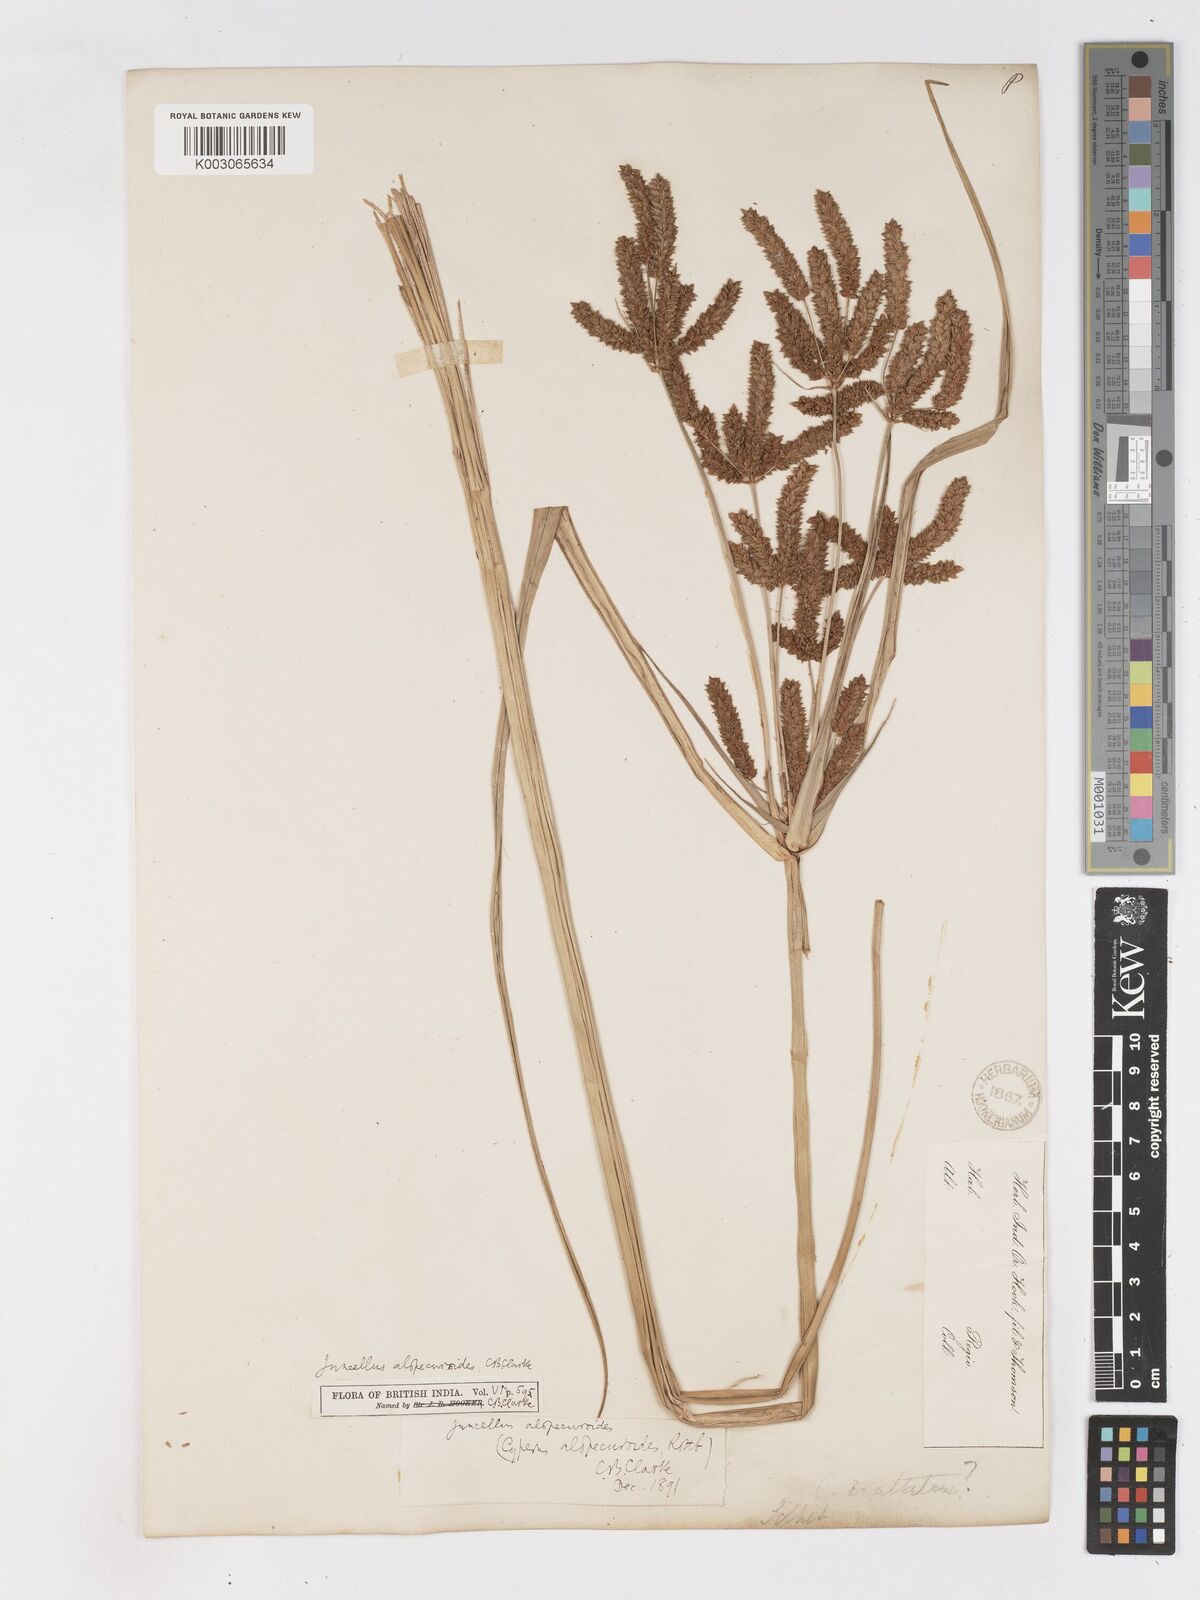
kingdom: Plantae
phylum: Tracheophyta
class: Liliopsida
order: Poales
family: Cyperaceae
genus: Cyperus
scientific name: Cyperus alopecuroides
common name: Foxtail flatsedge
